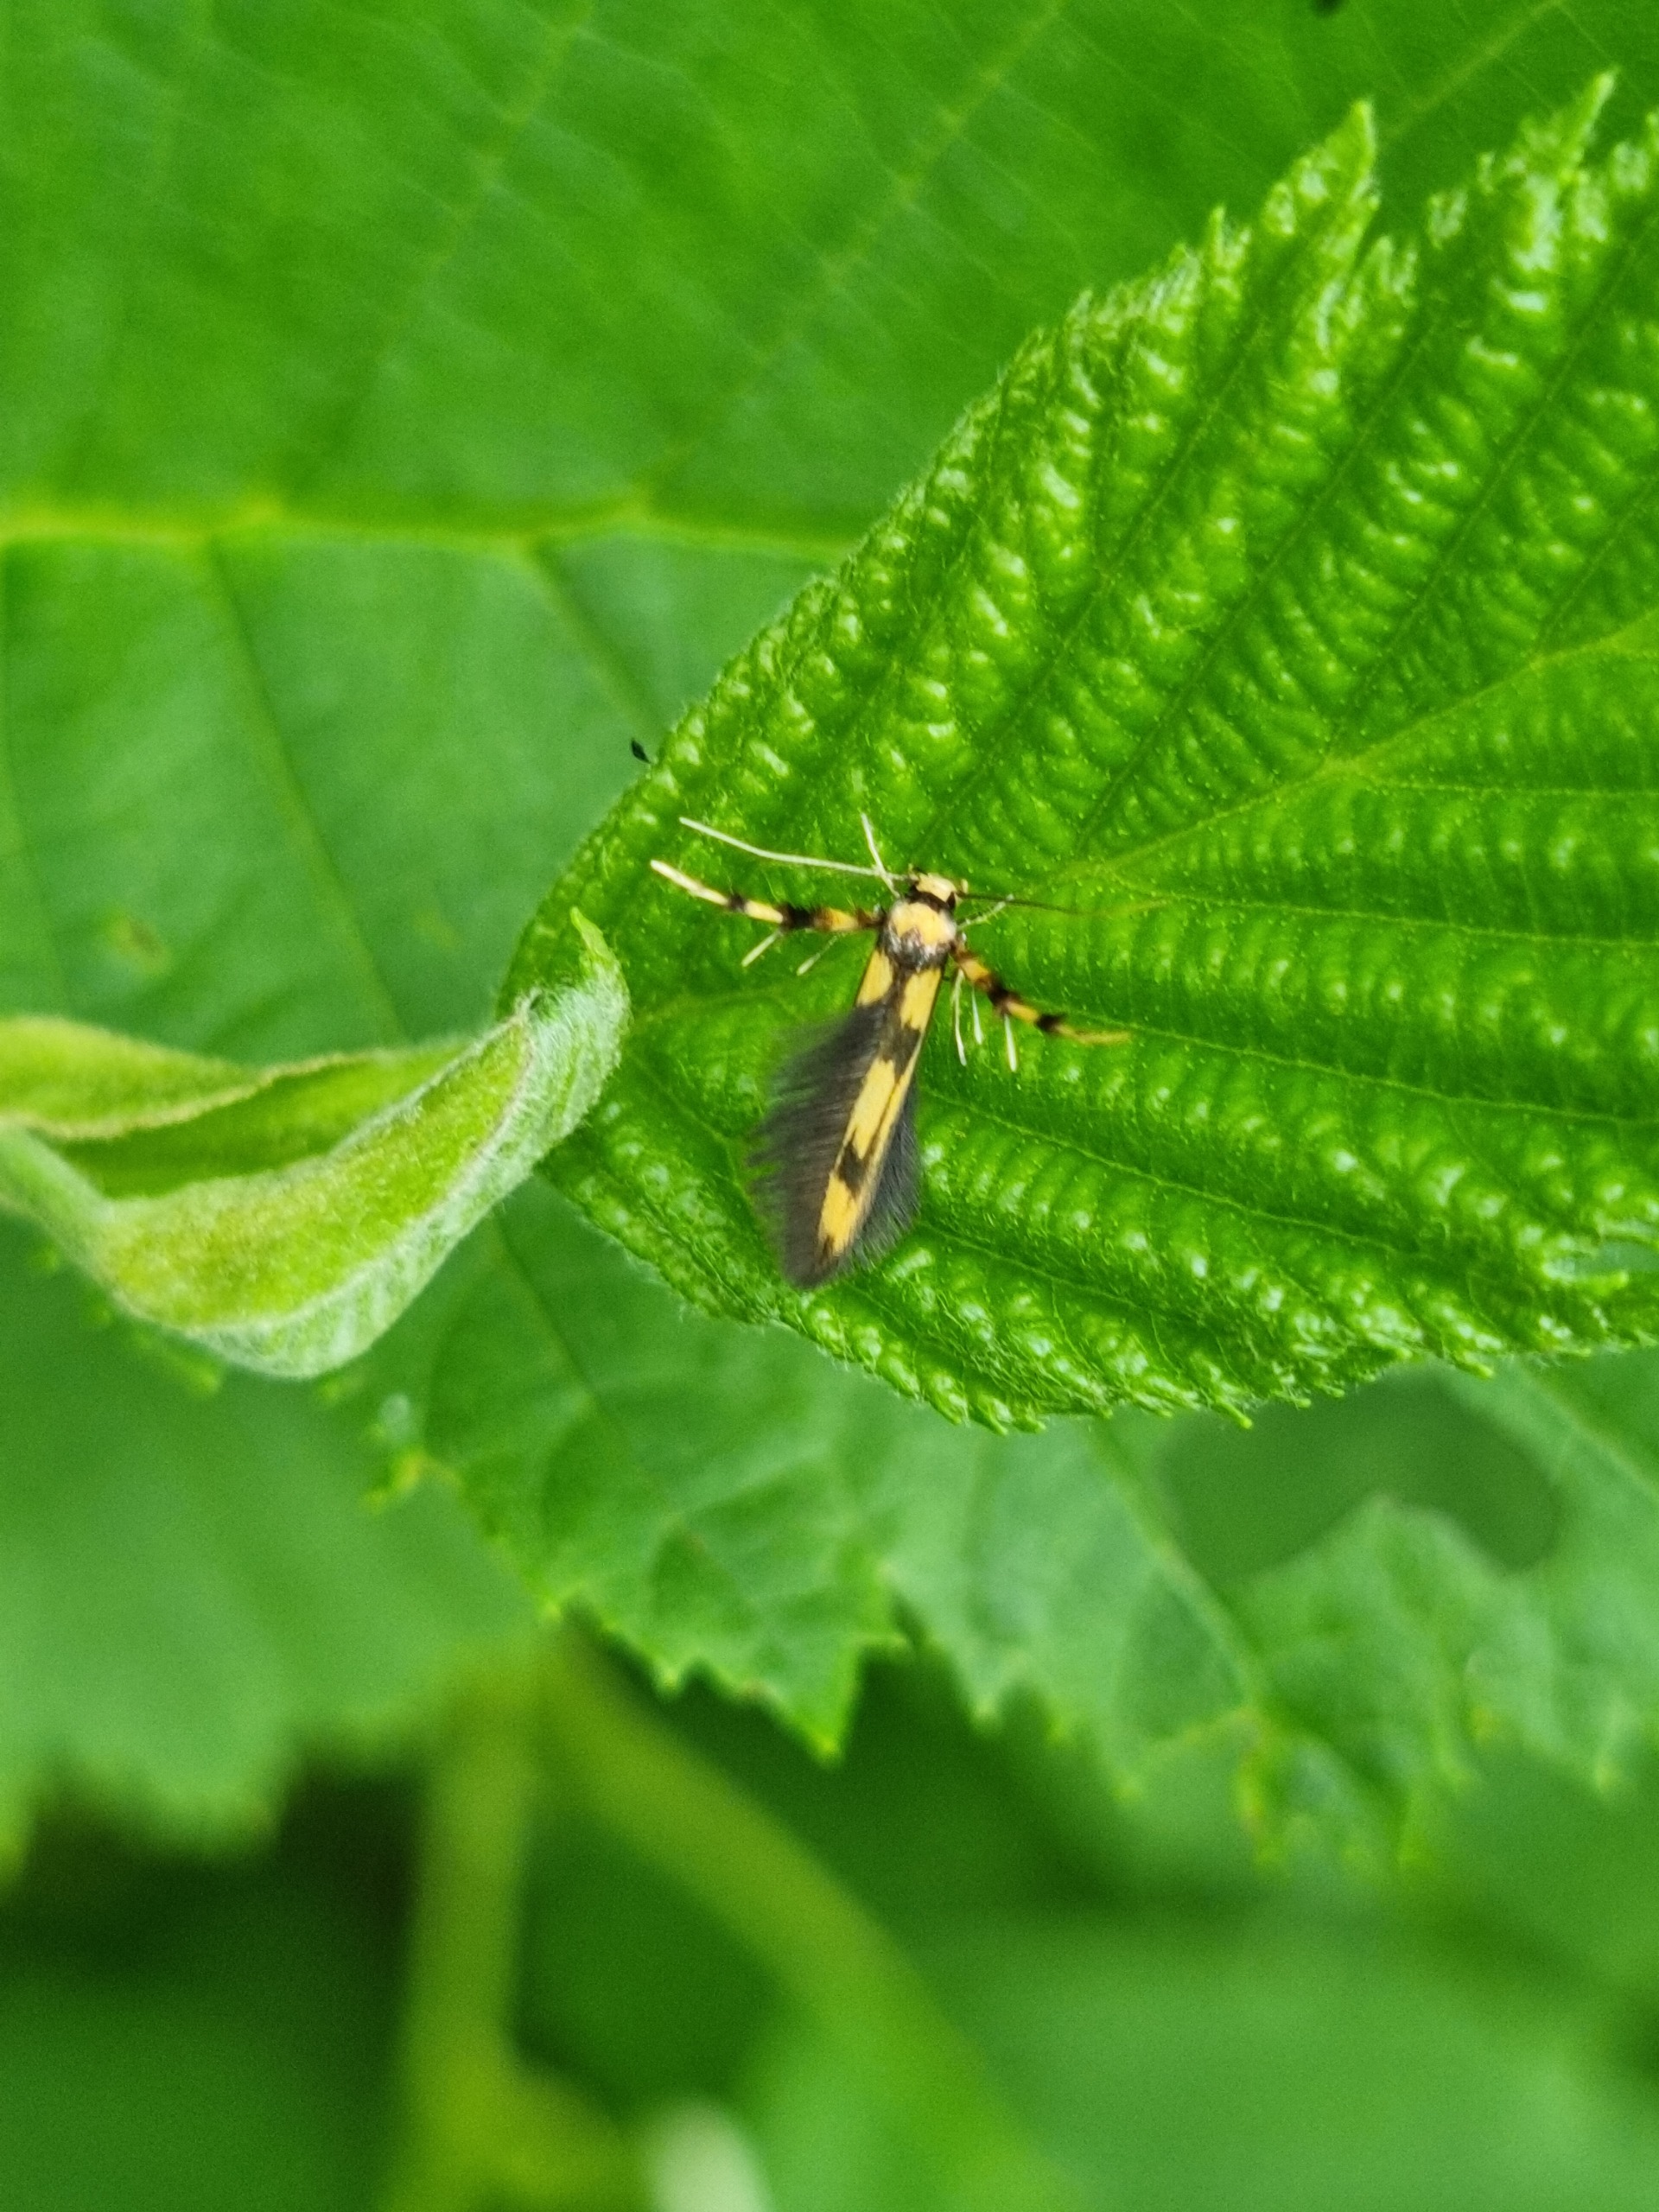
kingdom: Animalia
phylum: Arthropoda
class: Insecta
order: Lepidoptera
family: Stathmopodidae
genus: Stathmopoda
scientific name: Stathmopoda pedella
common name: Strittende ellemøl
